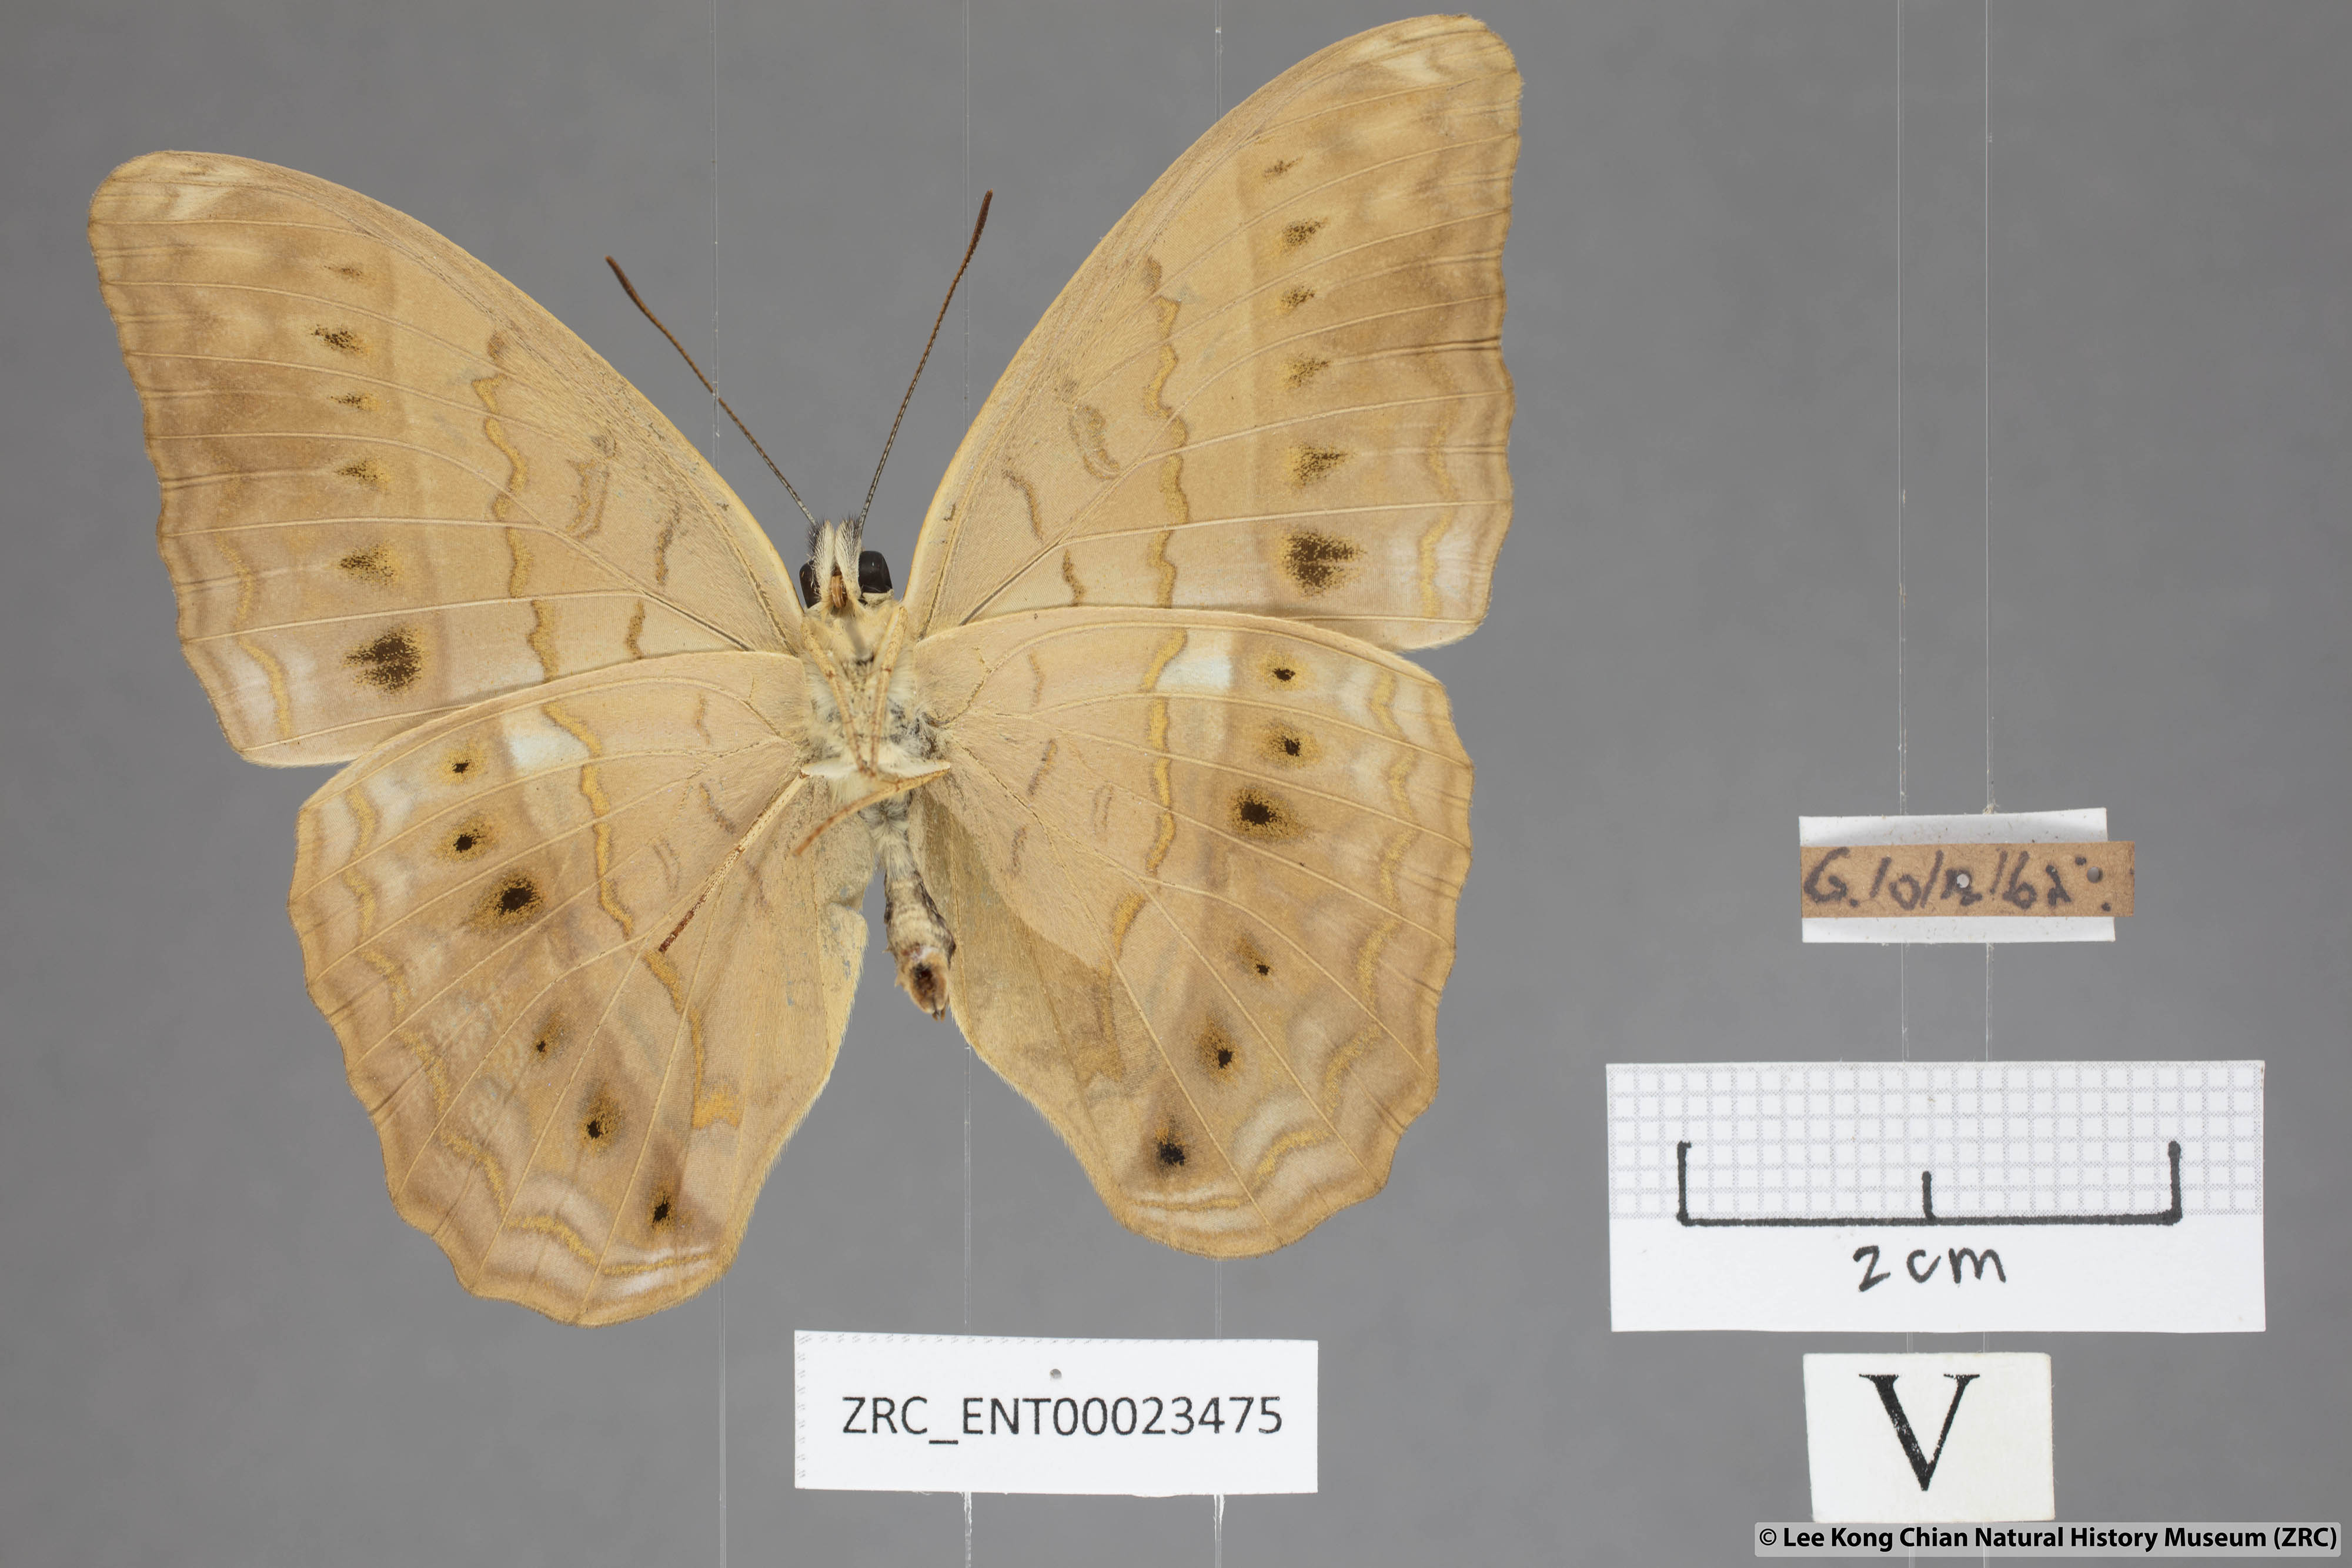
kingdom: Animalia
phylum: Arthropoda
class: Insecta
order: Lepidoptera
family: Nymphalidae
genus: Cirrochroa
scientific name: Cirrochroa tyche
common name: Common yeoman
